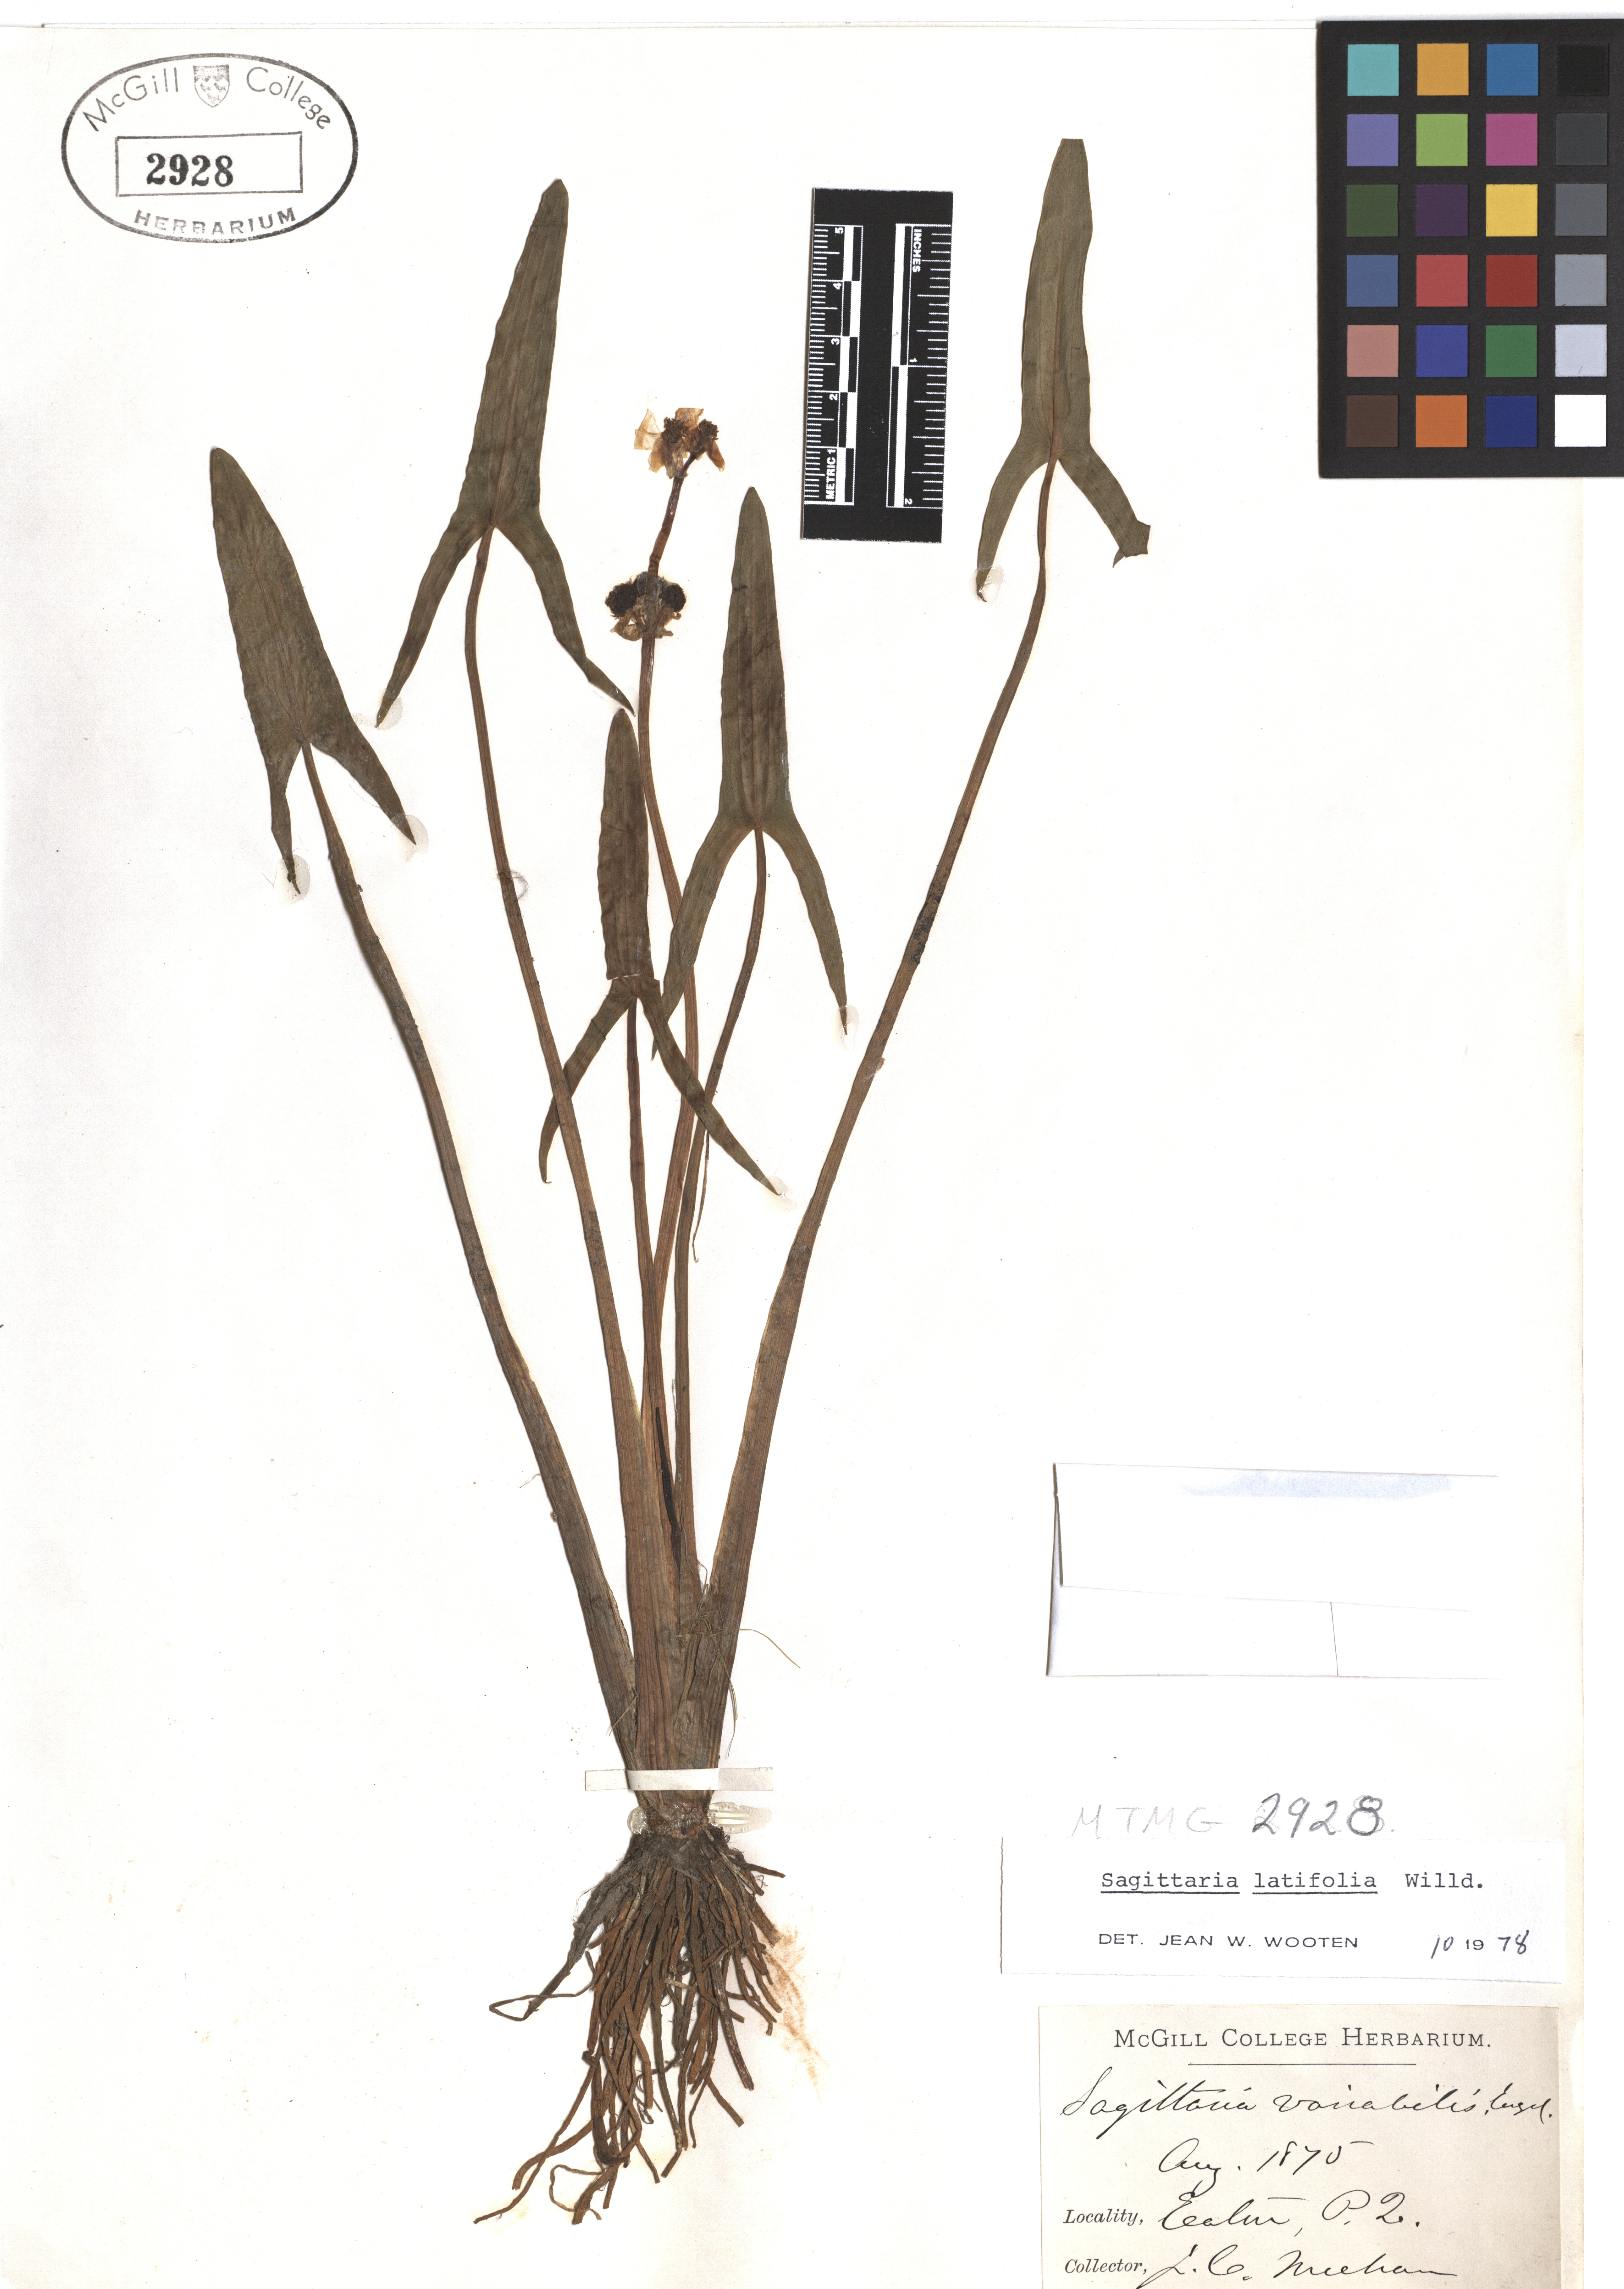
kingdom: Plantae
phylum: Tracheophyta
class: Liliopsida
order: Alismatales
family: Alismataceae
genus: Sagittaria
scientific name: Sagittaria latifolia
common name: Duck-potato
